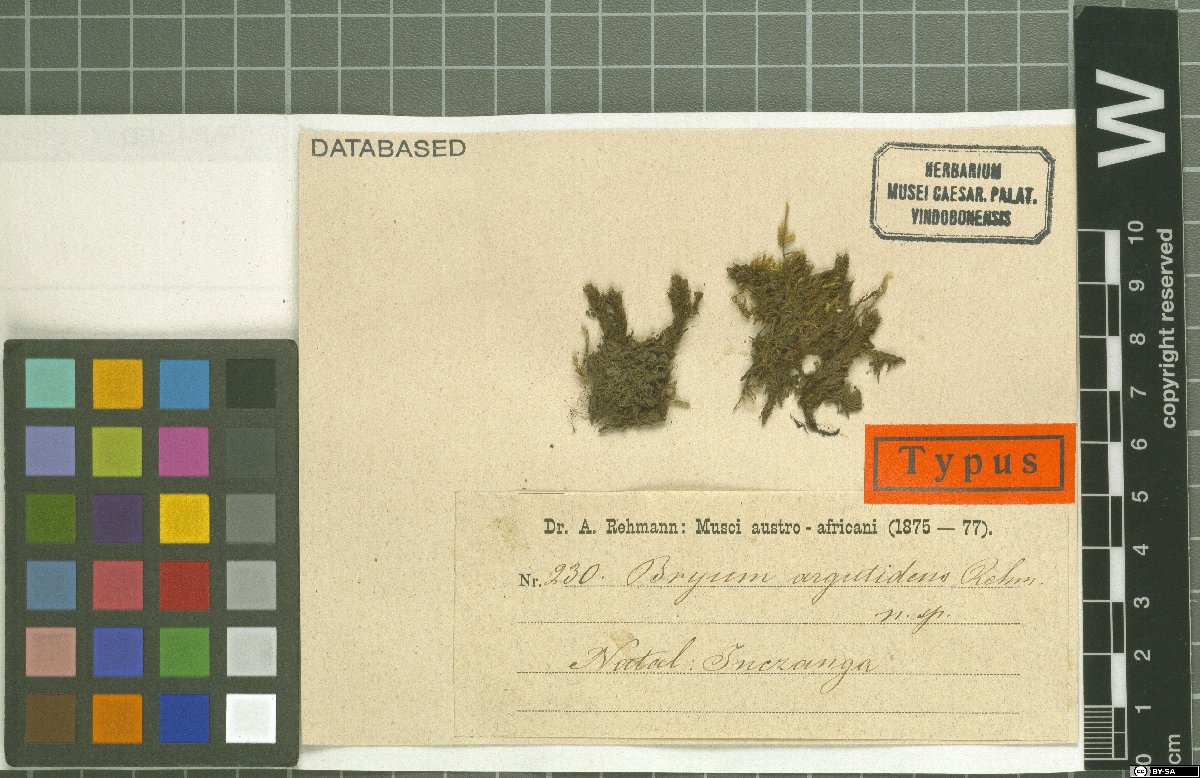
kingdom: Plantae
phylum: Bryophyta
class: Bryopsida
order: Bryales
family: Bryaceae
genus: Ptychostomum
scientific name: Ptychostomum intermedium
